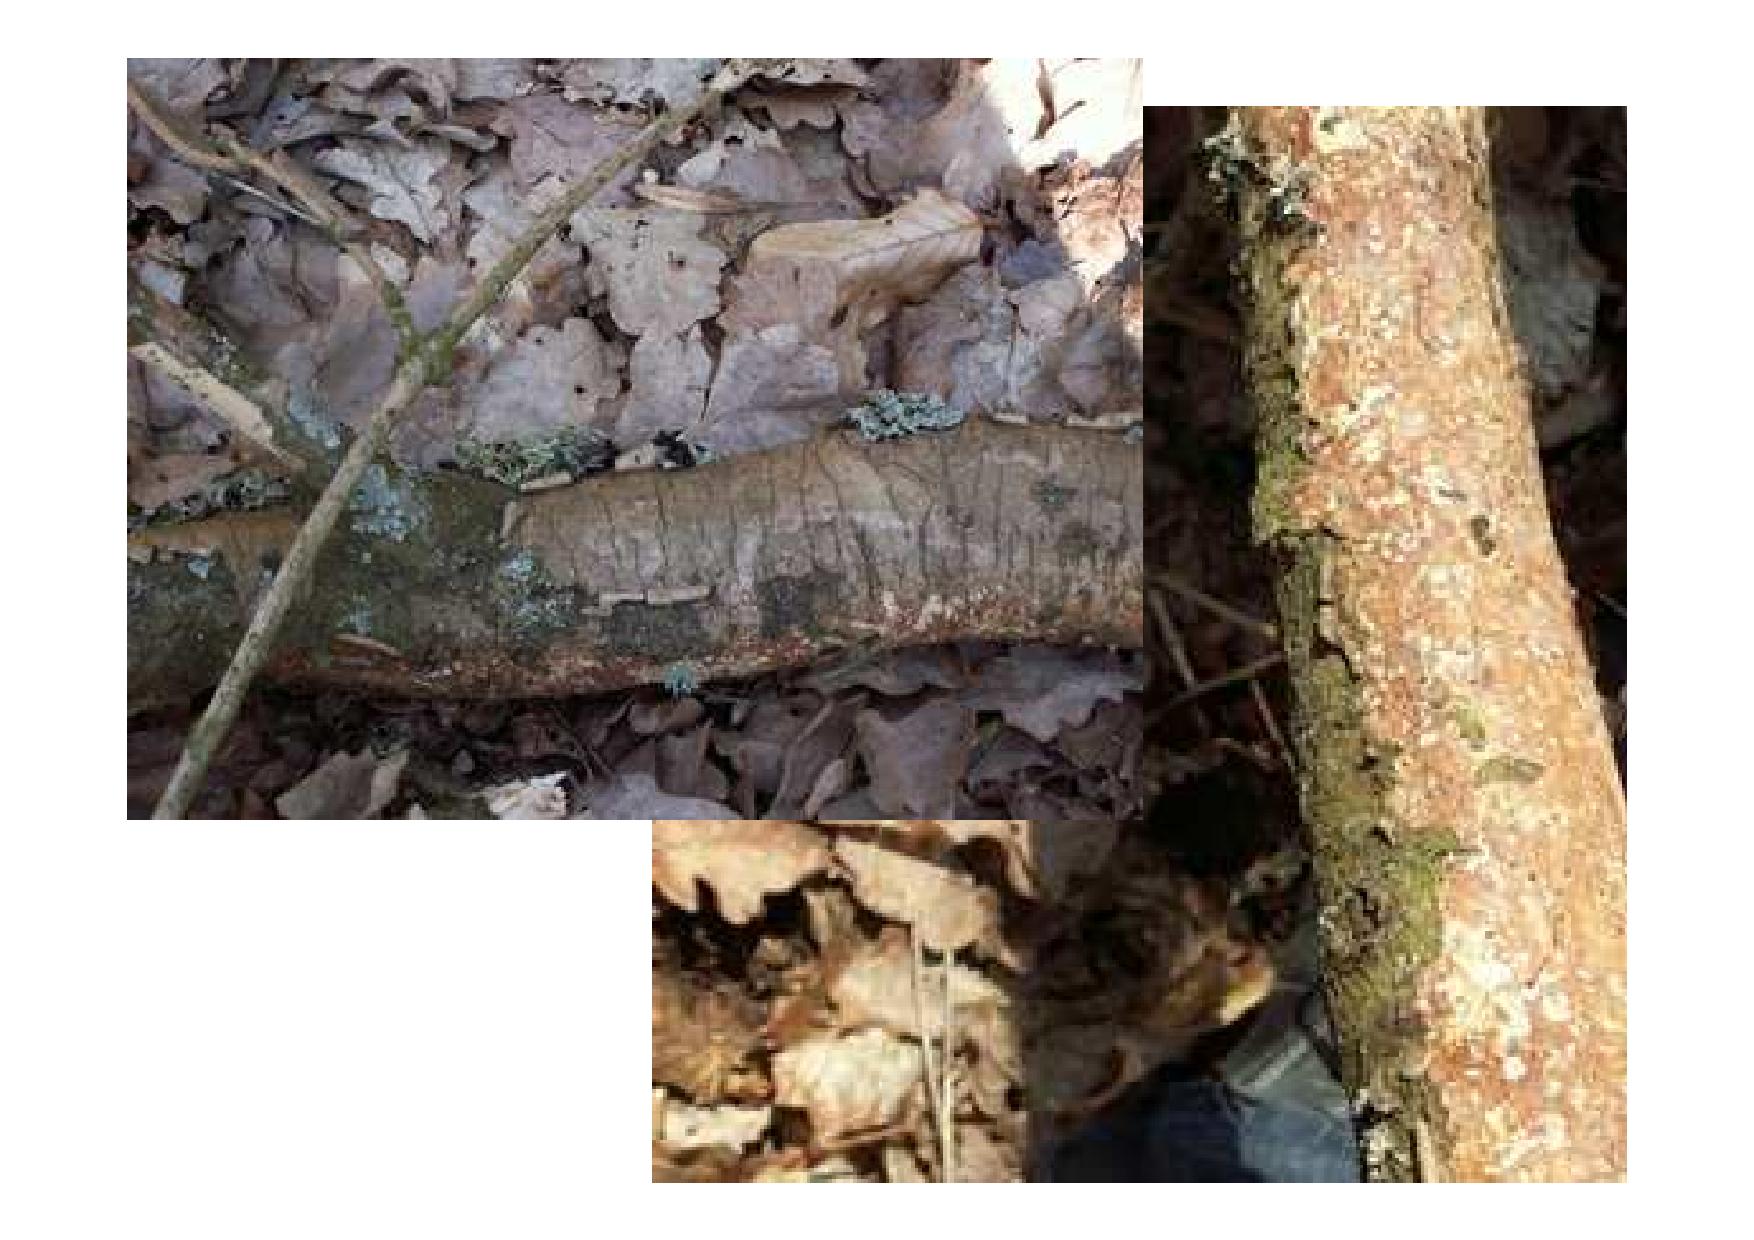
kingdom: Fungi
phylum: Basidiomycota
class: Agaricomycetes
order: Corticiales
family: Vuilleminiaceae
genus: Vuilleminia
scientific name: Vuilleminia comedens
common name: almindelig barksprænger
